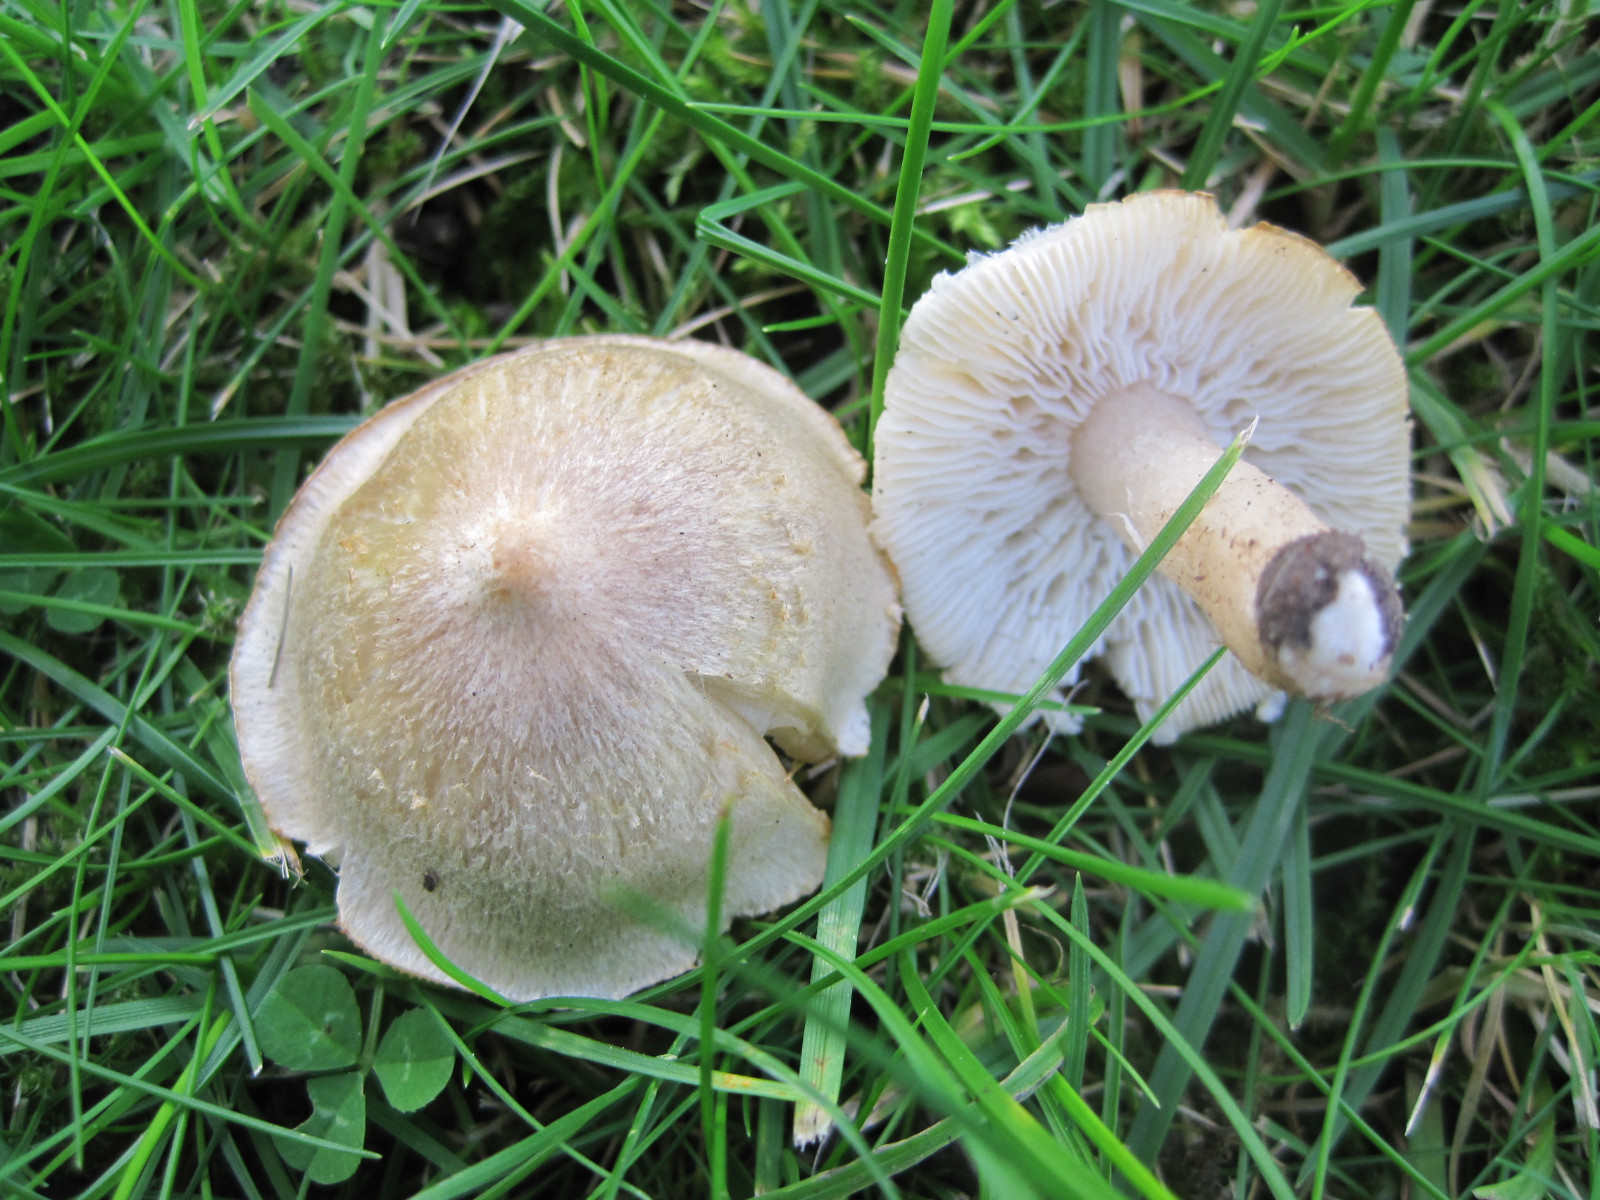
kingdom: Fungi
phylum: Basidiomycota
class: Agaricomycetes
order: Agaricales
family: Tricholomataceae
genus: Tricholoma
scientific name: Tricholoma argyraceum
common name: slør-ridderhat
